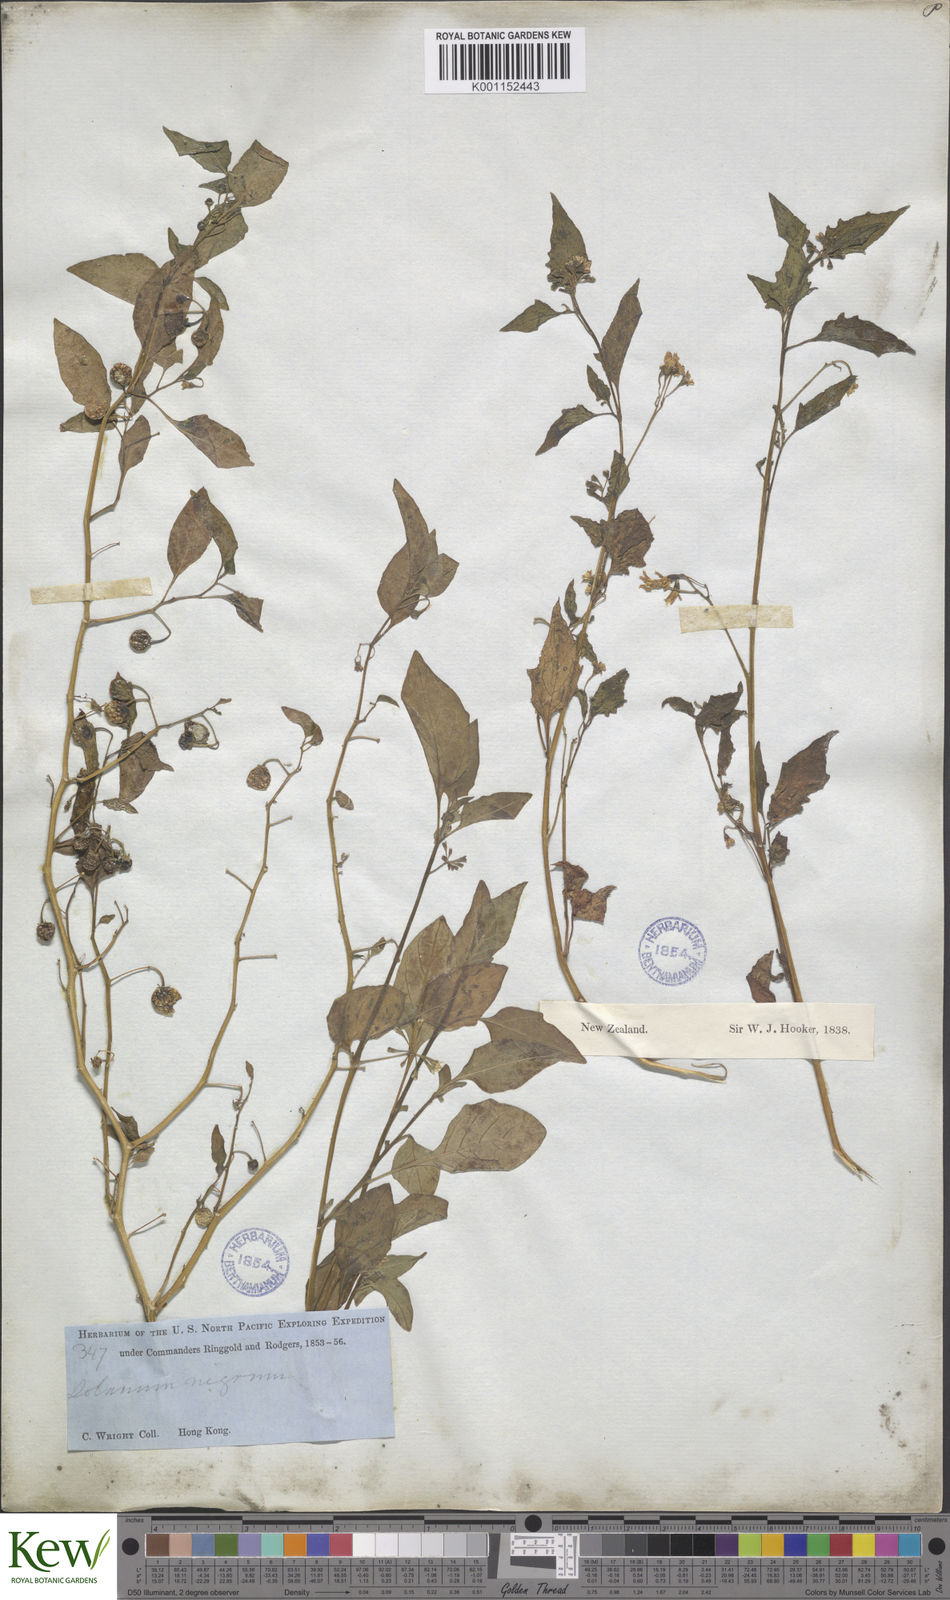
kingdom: Plantae
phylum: Tracheophyta
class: Magnoliopsida
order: Solanales
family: Solanaceae
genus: Solanum
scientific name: Solanum americanum
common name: American black nightshade
